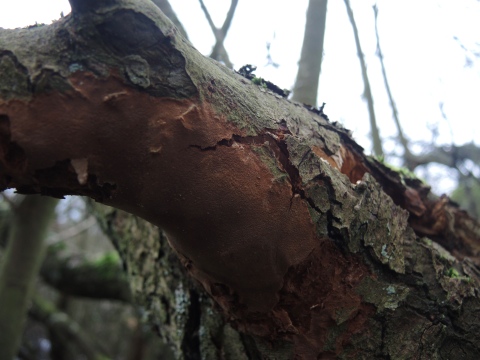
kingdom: Fungi
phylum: Basidiomycota
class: Agaricomycetes
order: Hymenochaetales
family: Hymenochaetaceae
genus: Fomitiporia
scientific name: Fomitiporia punctata
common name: pude-ildporesvamp
